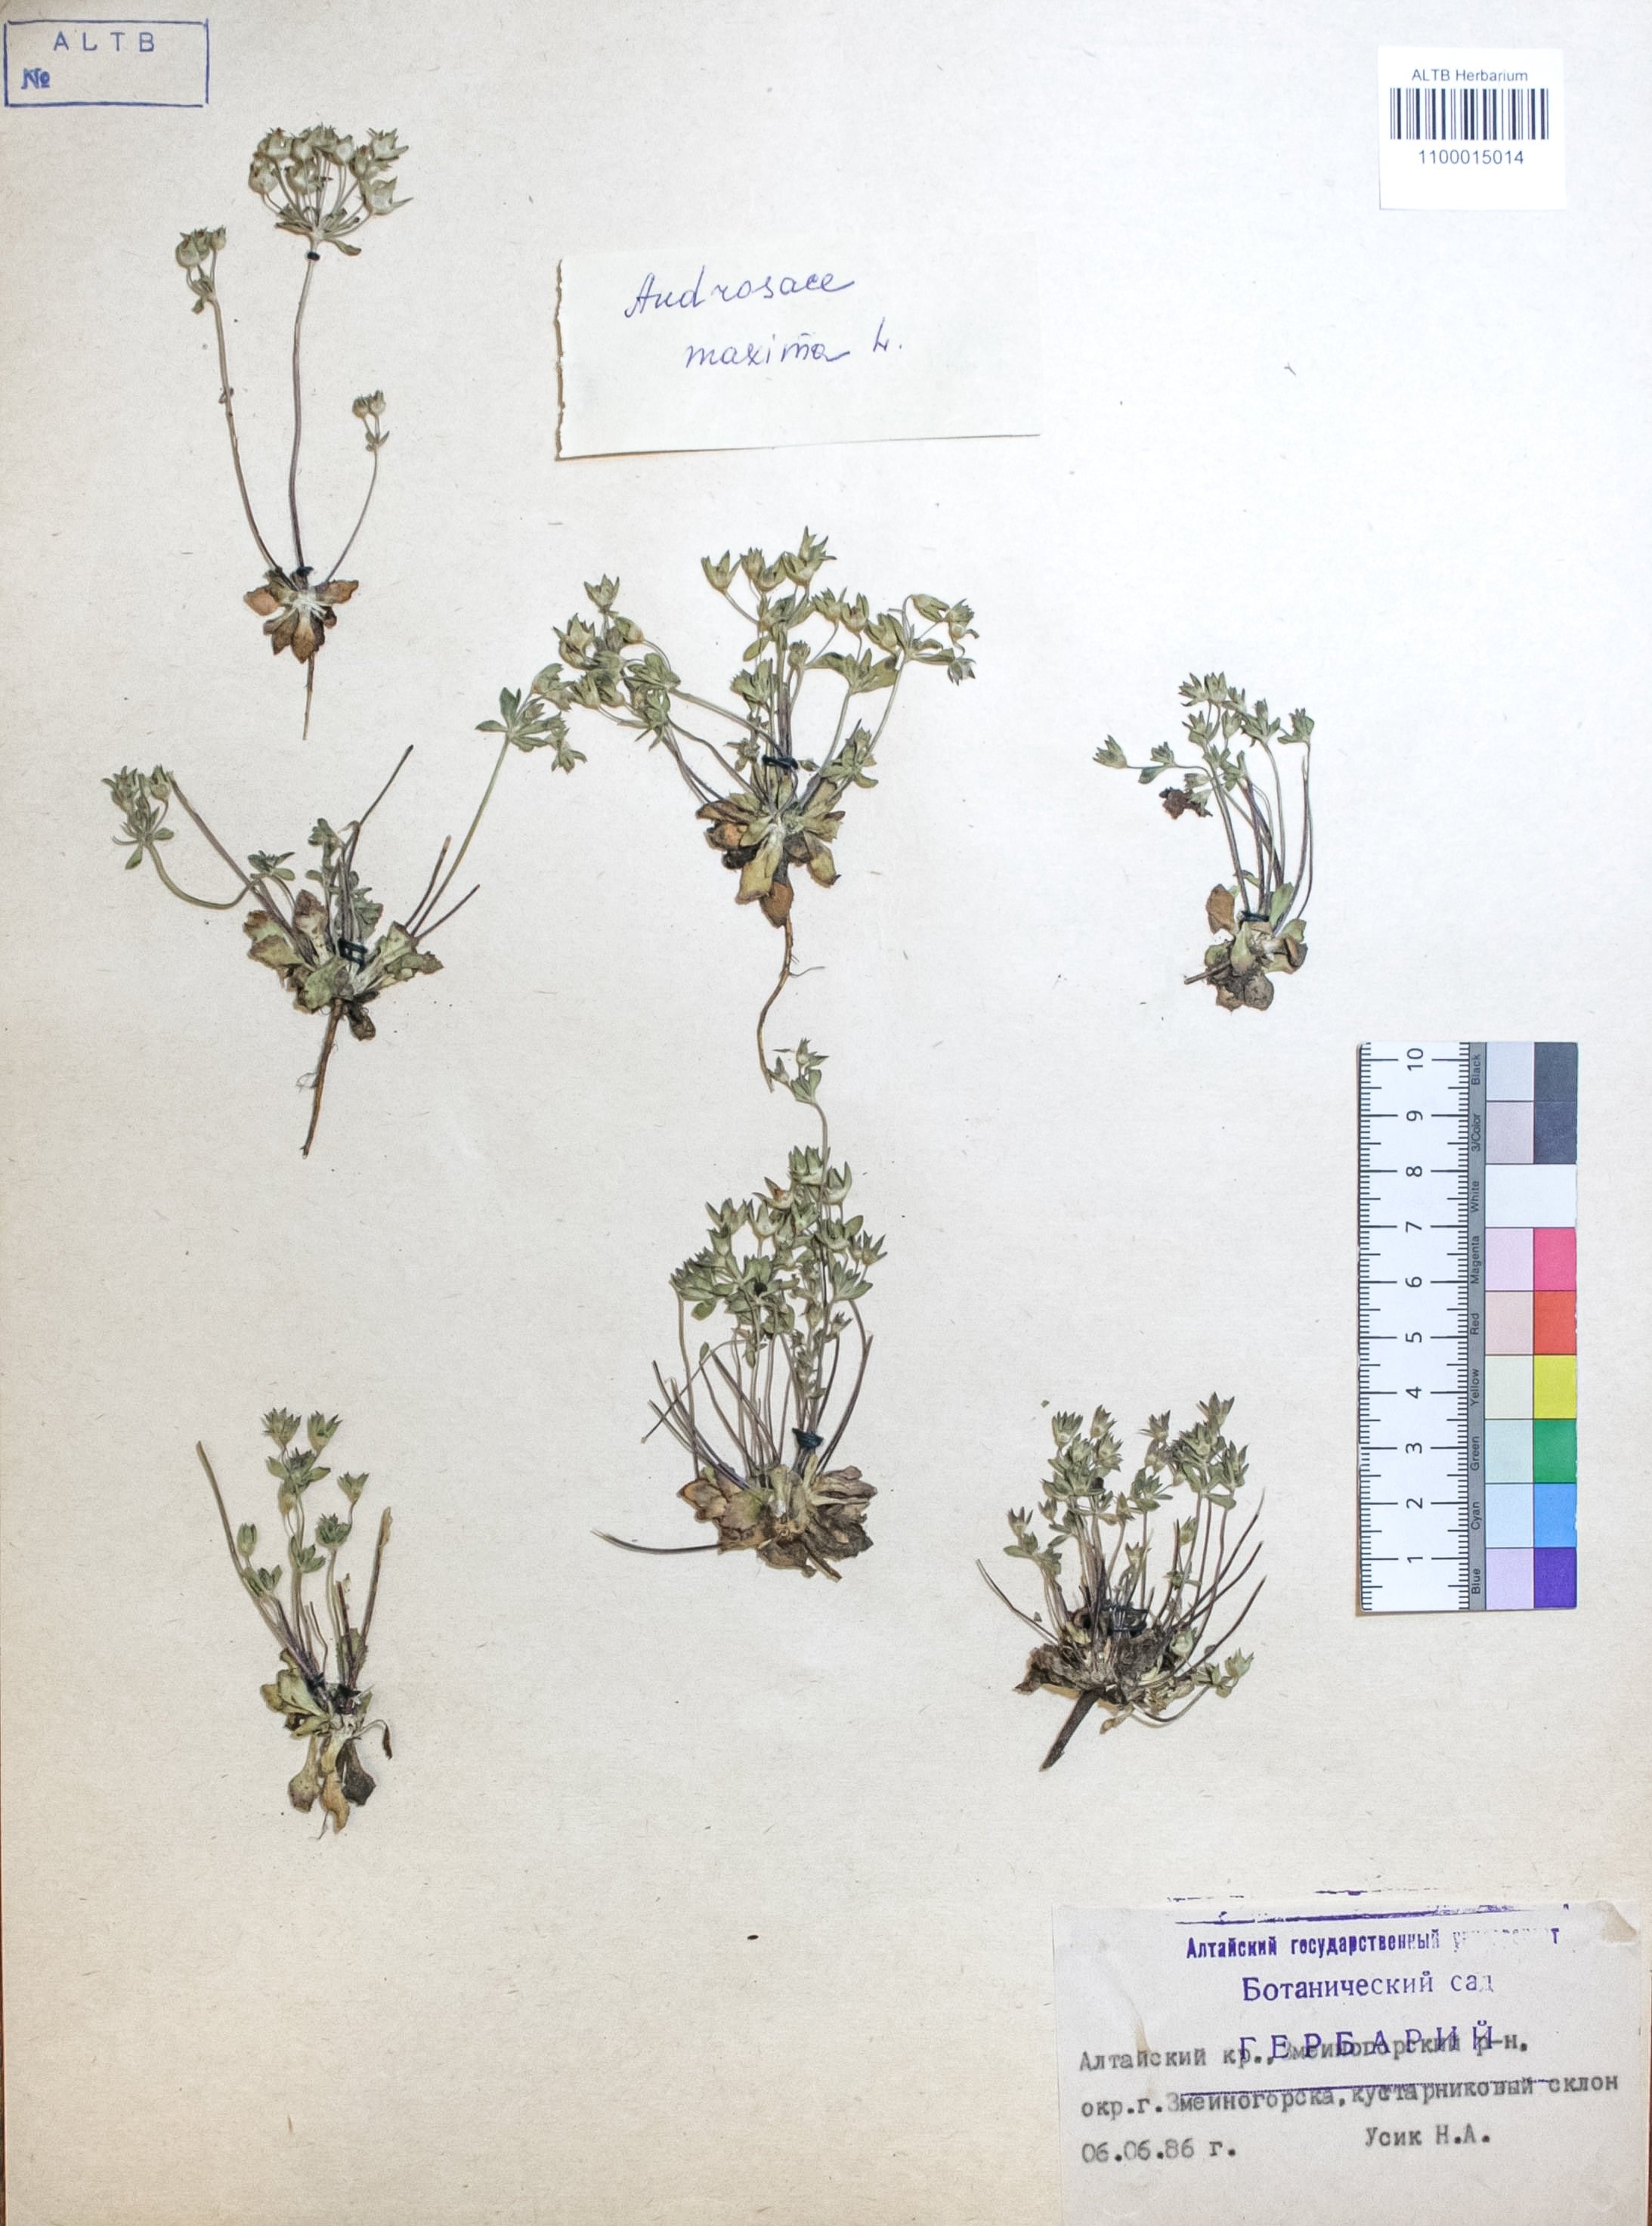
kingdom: Plantae
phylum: Tracheophyta
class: Magnoliopsida
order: Ericales
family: Primulaceae
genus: Androsace
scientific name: Androsace maxima
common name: Annual androsace
